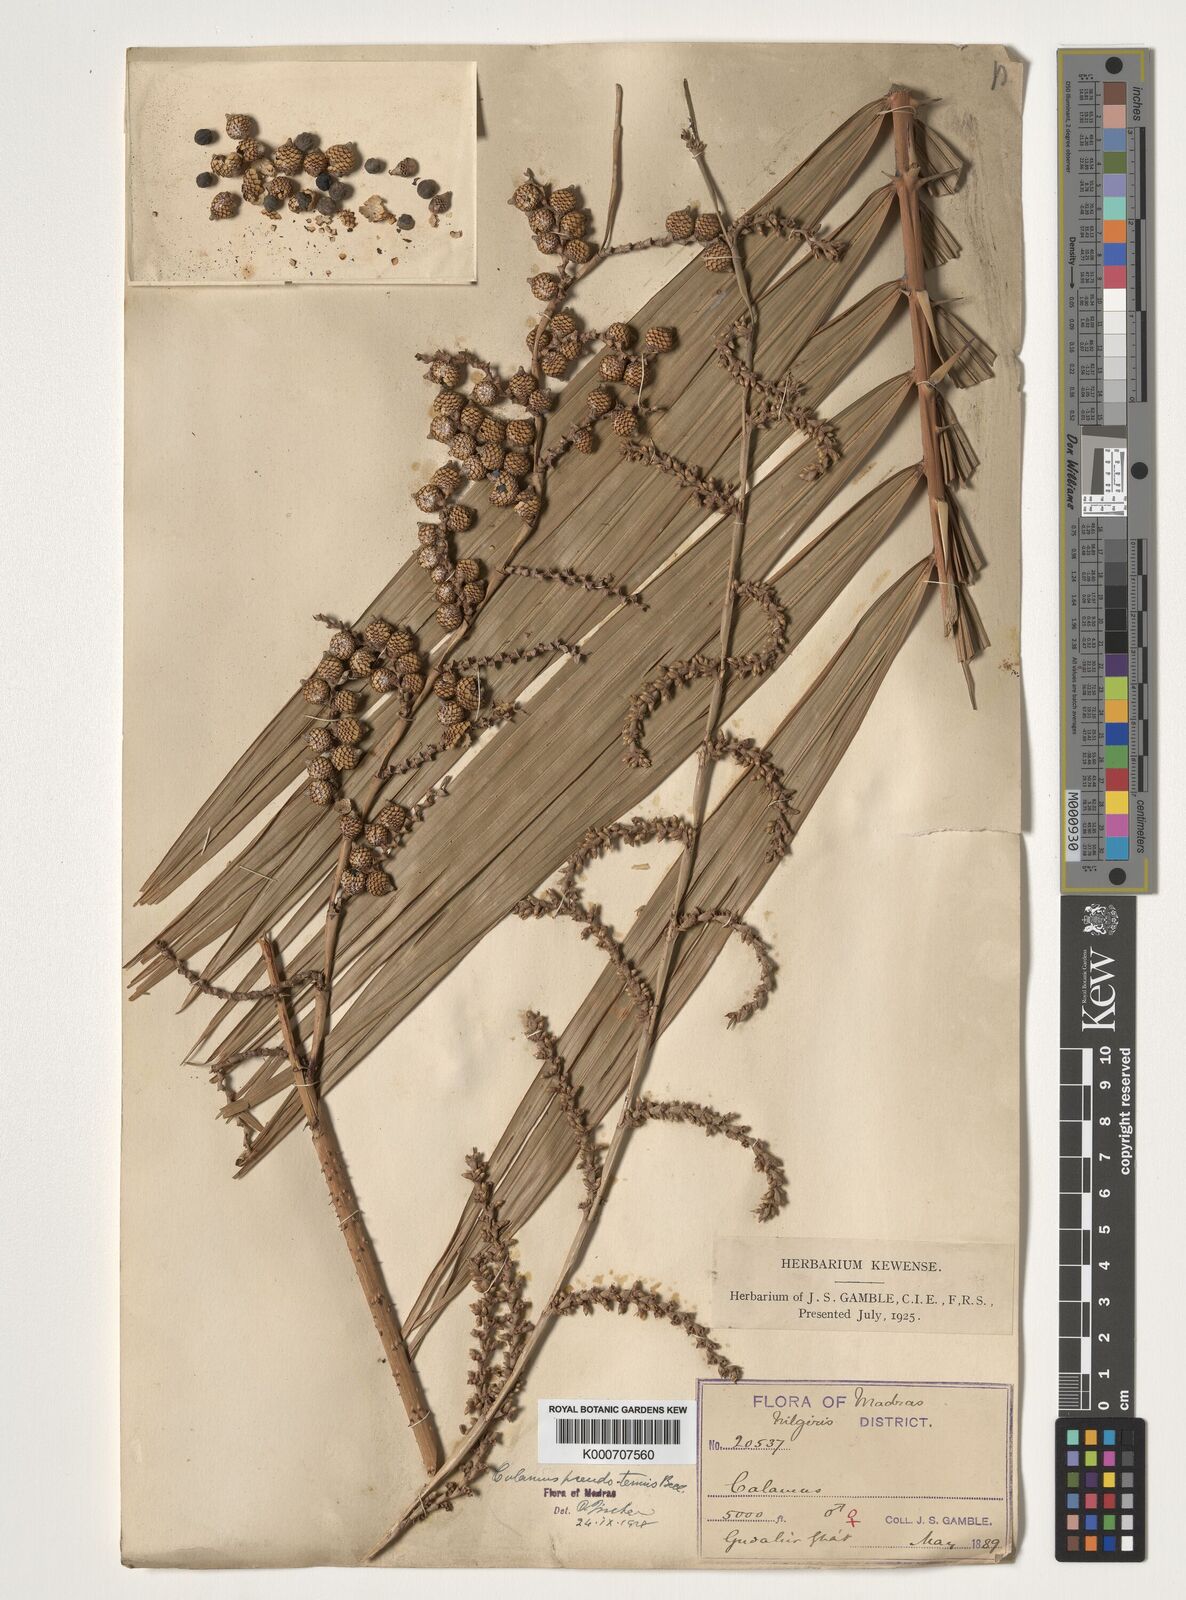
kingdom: Plantae
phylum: Tracheophyta
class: Liliopsida
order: Arecales
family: Arecaceae
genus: Calamus
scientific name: Calamus pseudotenuis
